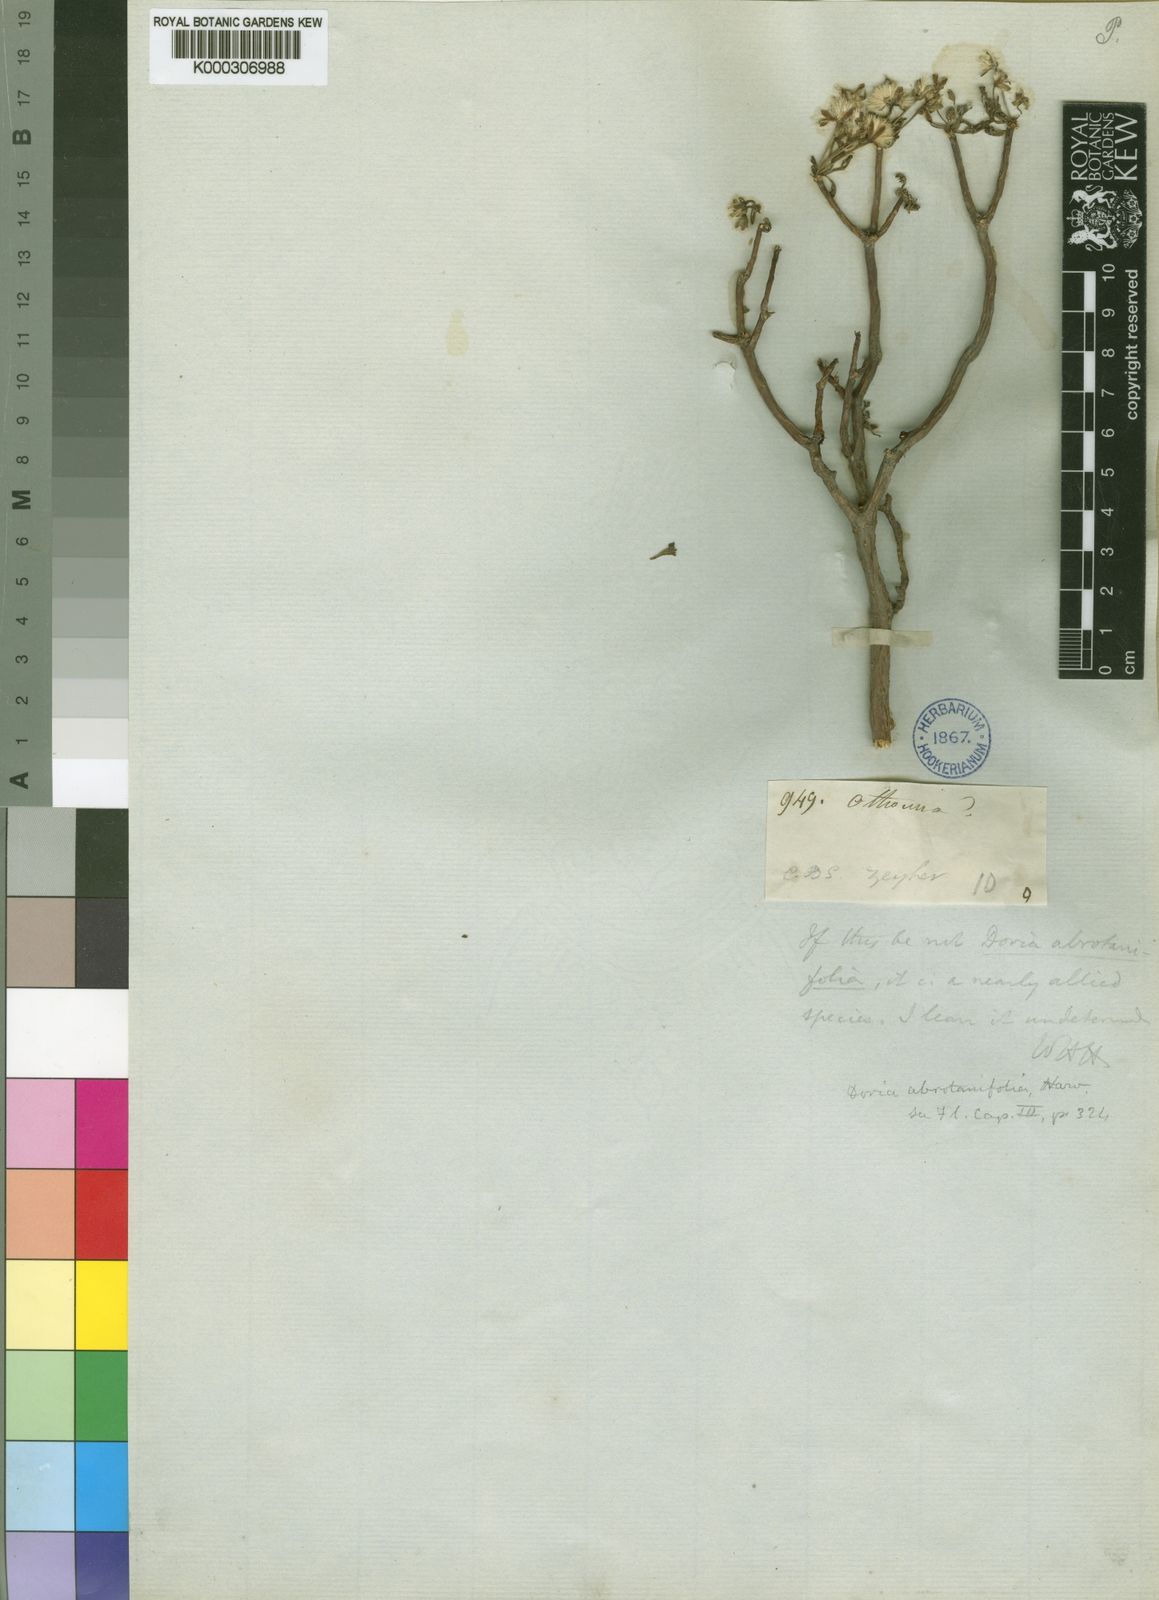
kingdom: Plantae
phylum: Tracheophyta
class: Magnoliopsida
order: Asterales
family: Asteraceae
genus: Euryops
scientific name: Euryops abrotanifolius
